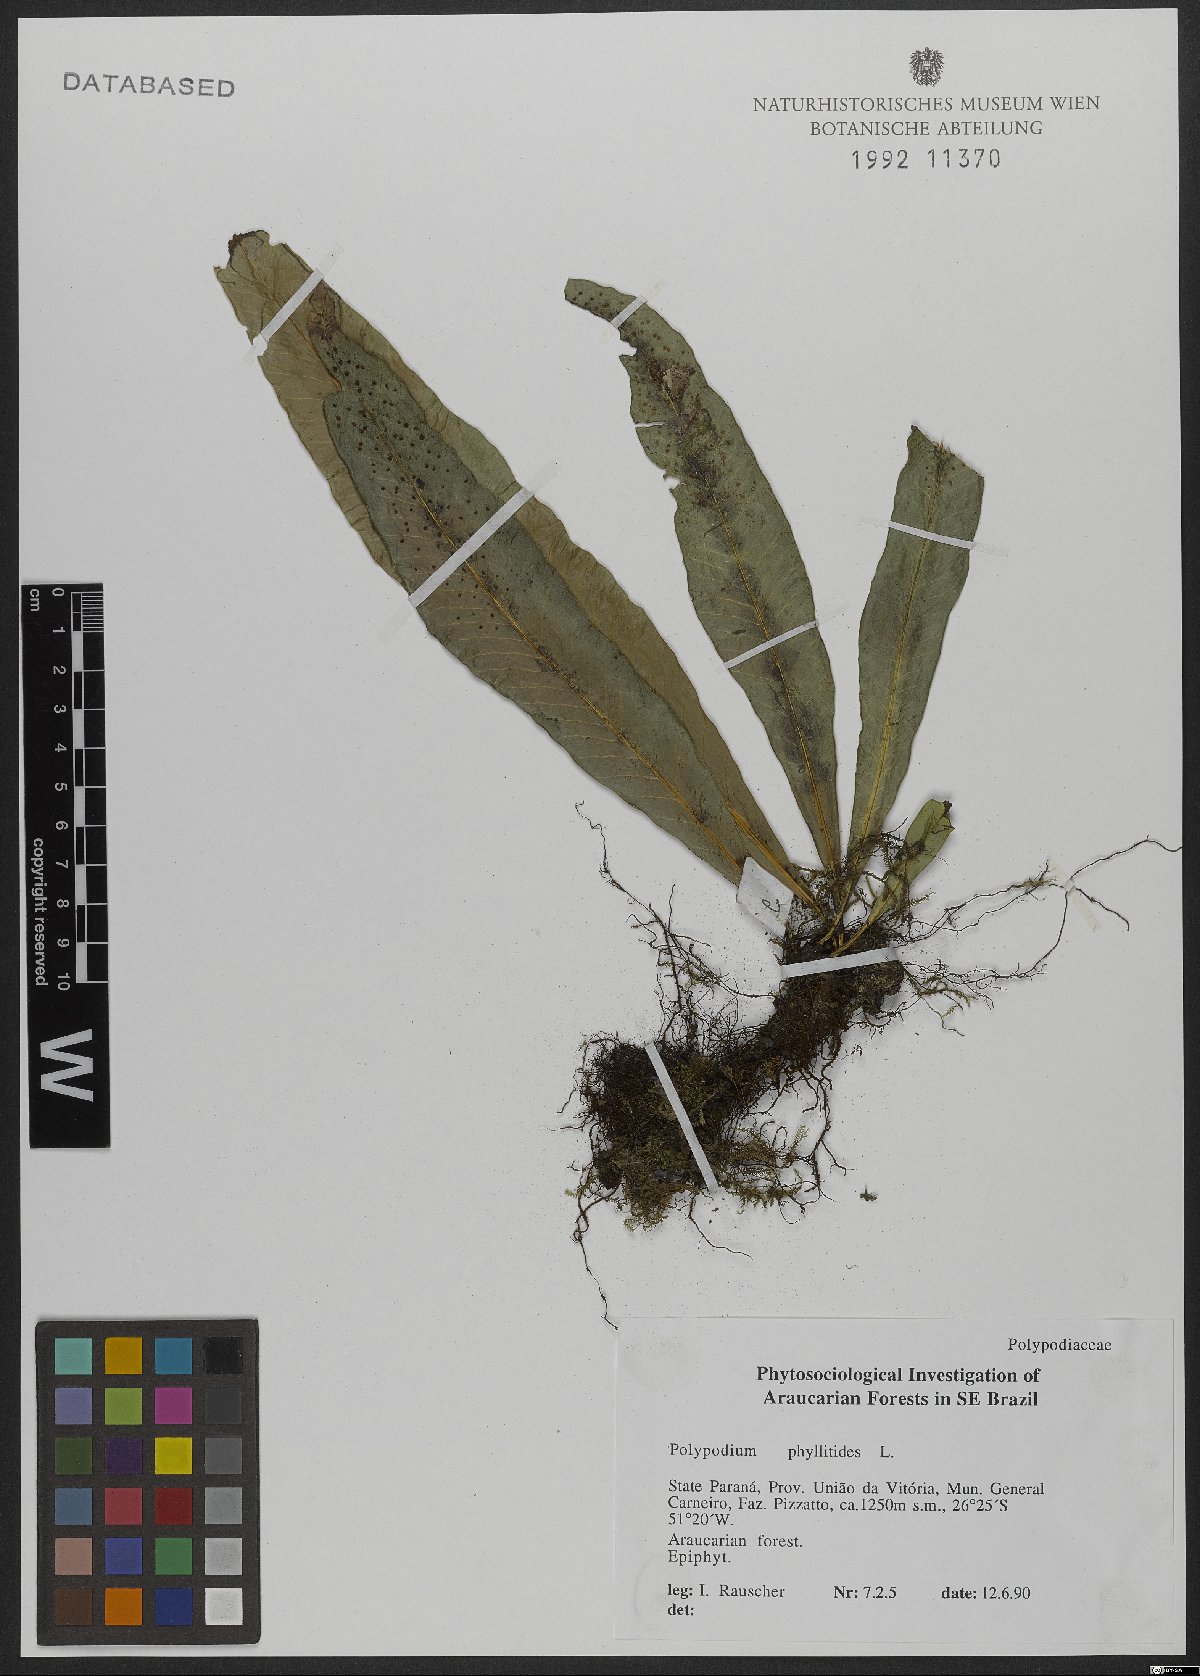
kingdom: Plantae
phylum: Tracheophyta
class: Polypodiopsida
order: Polypodiales
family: Polypodiaceae
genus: Campyloneurum
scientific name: Campyloneurum phyllitidis
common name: Cow-tongue fern
